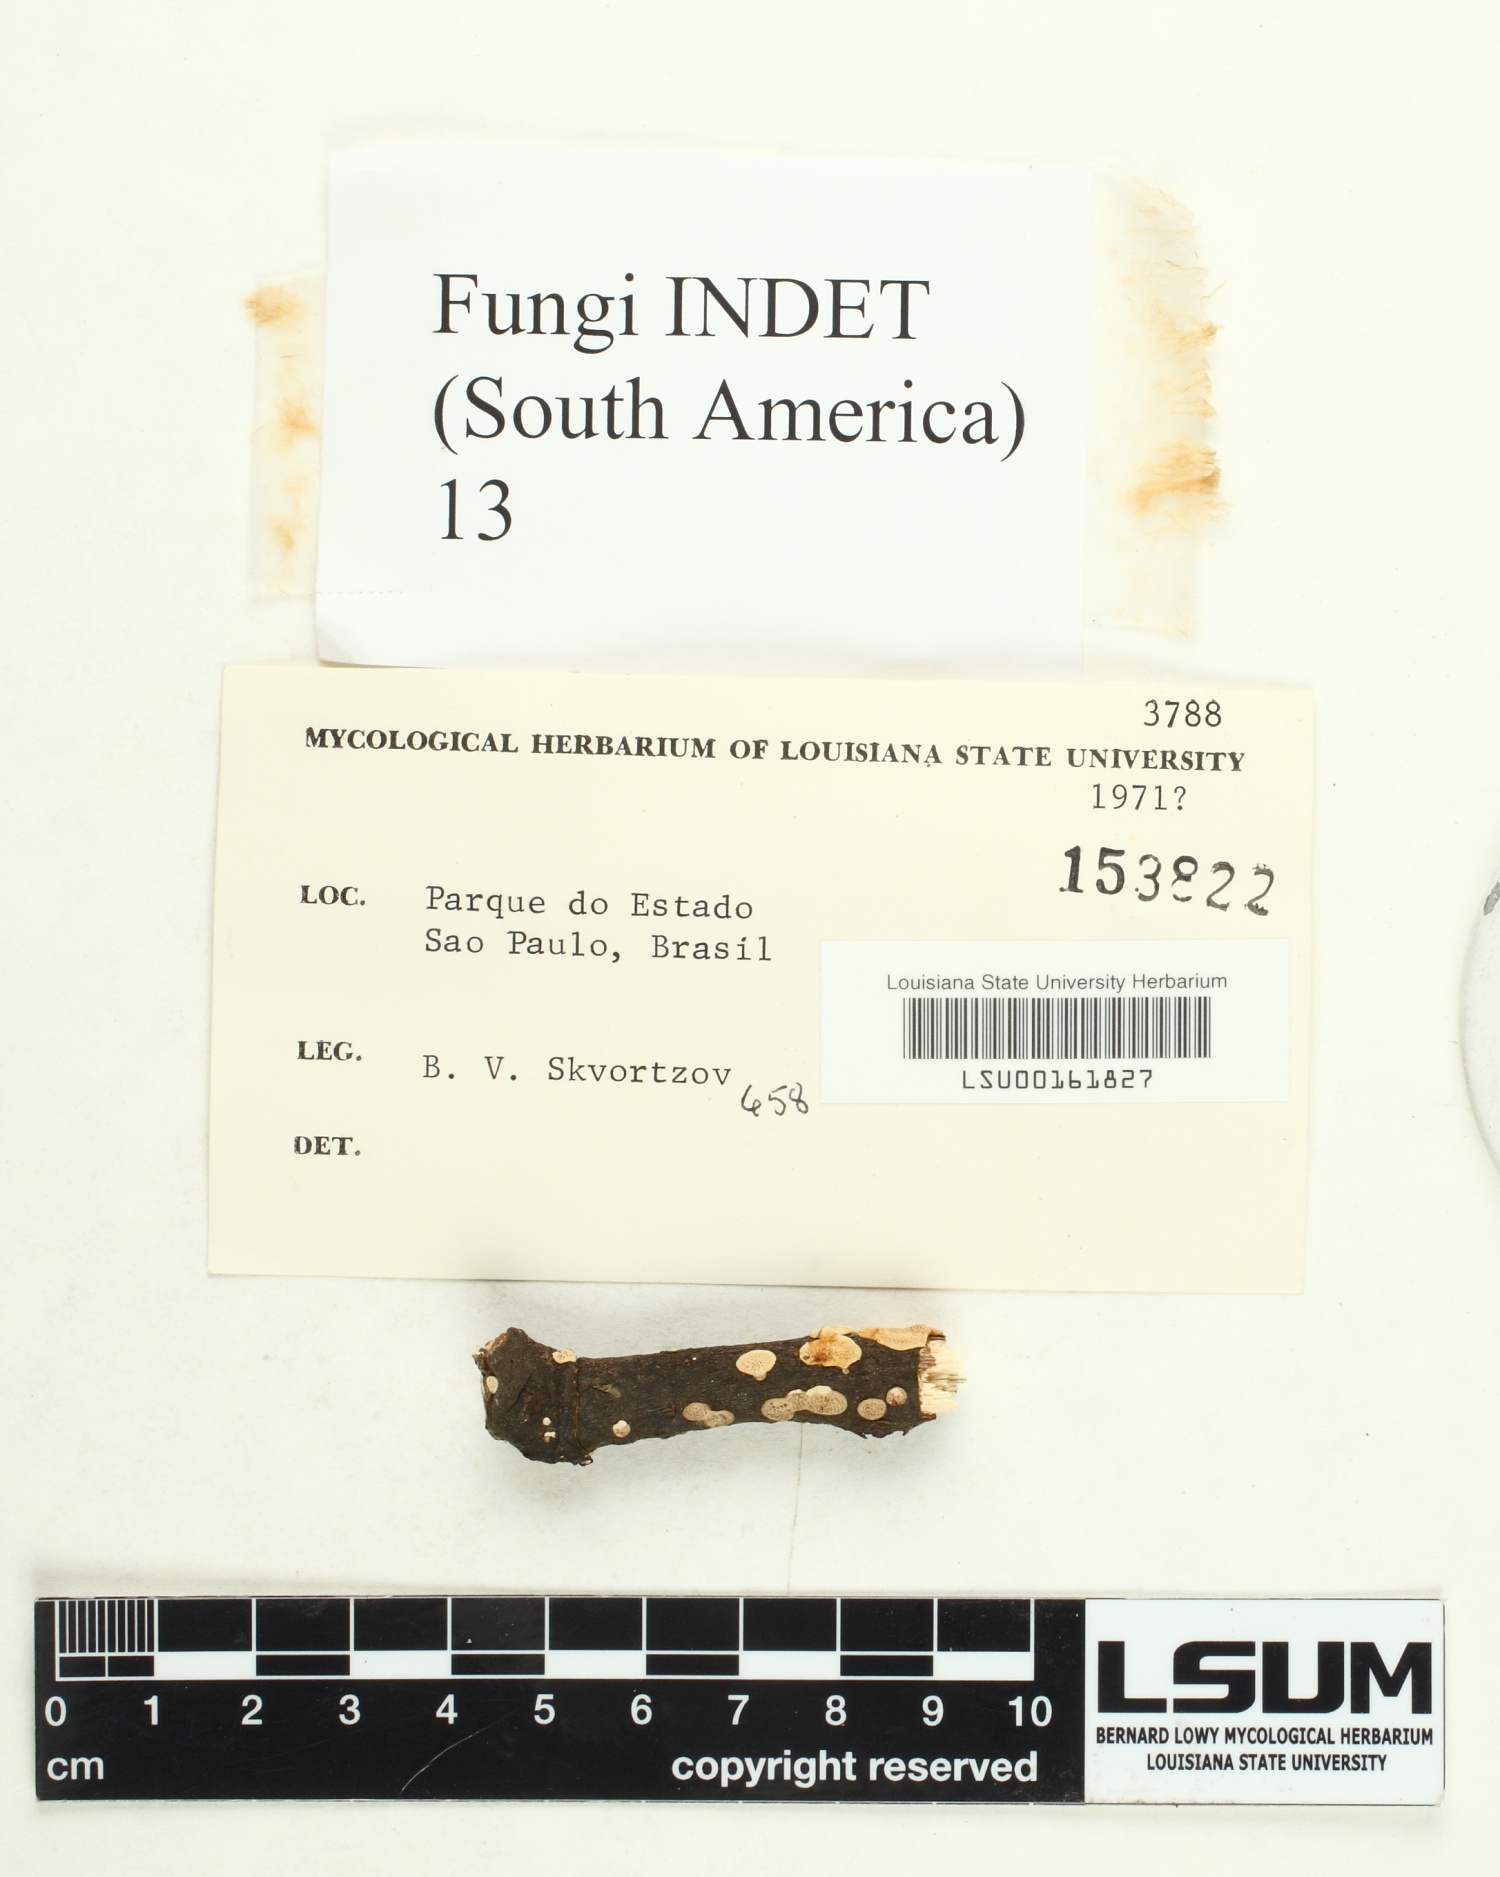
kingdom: Fungi
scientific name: Fungi
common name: Fungi
